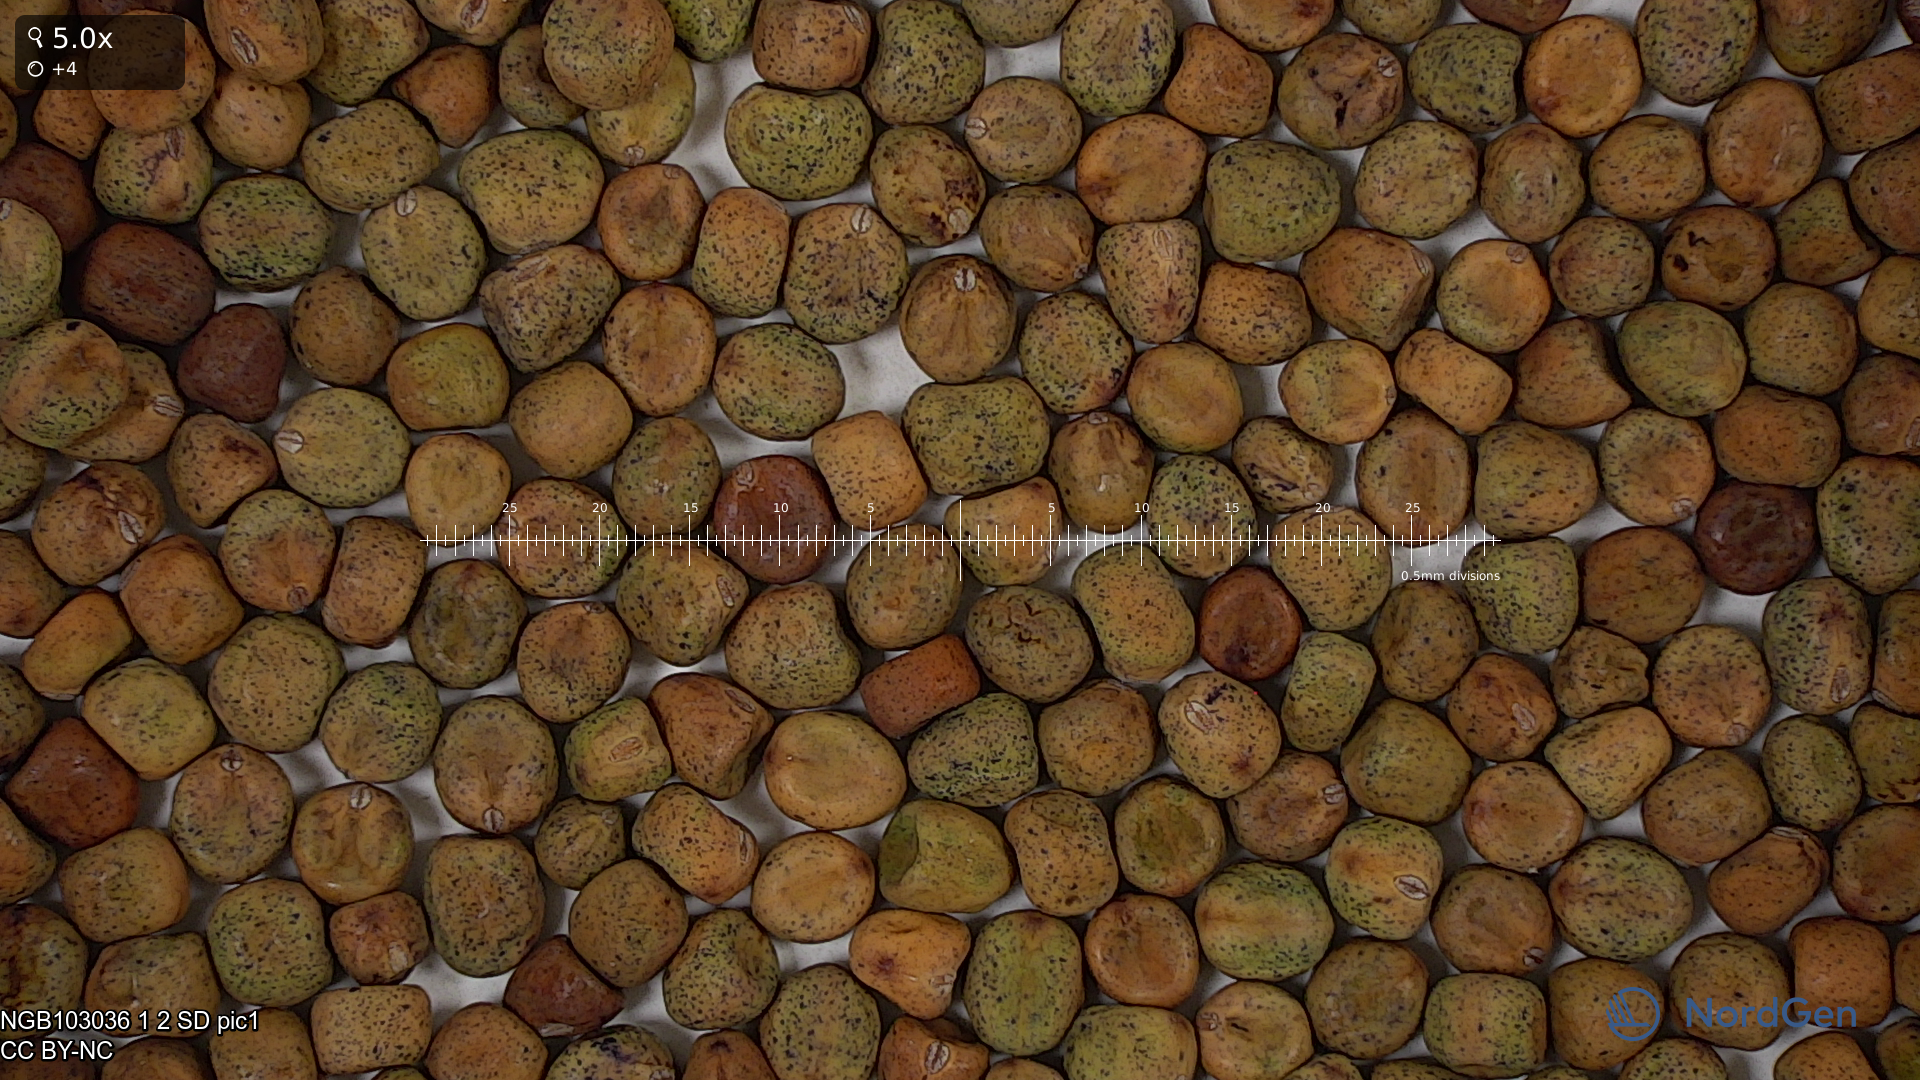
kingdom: Plantae
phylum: Tracheophyta
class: Magnoliopsida
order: Fabales
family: Fabaceae
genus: Lathyrus
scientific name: Lathyrus oleraceus
